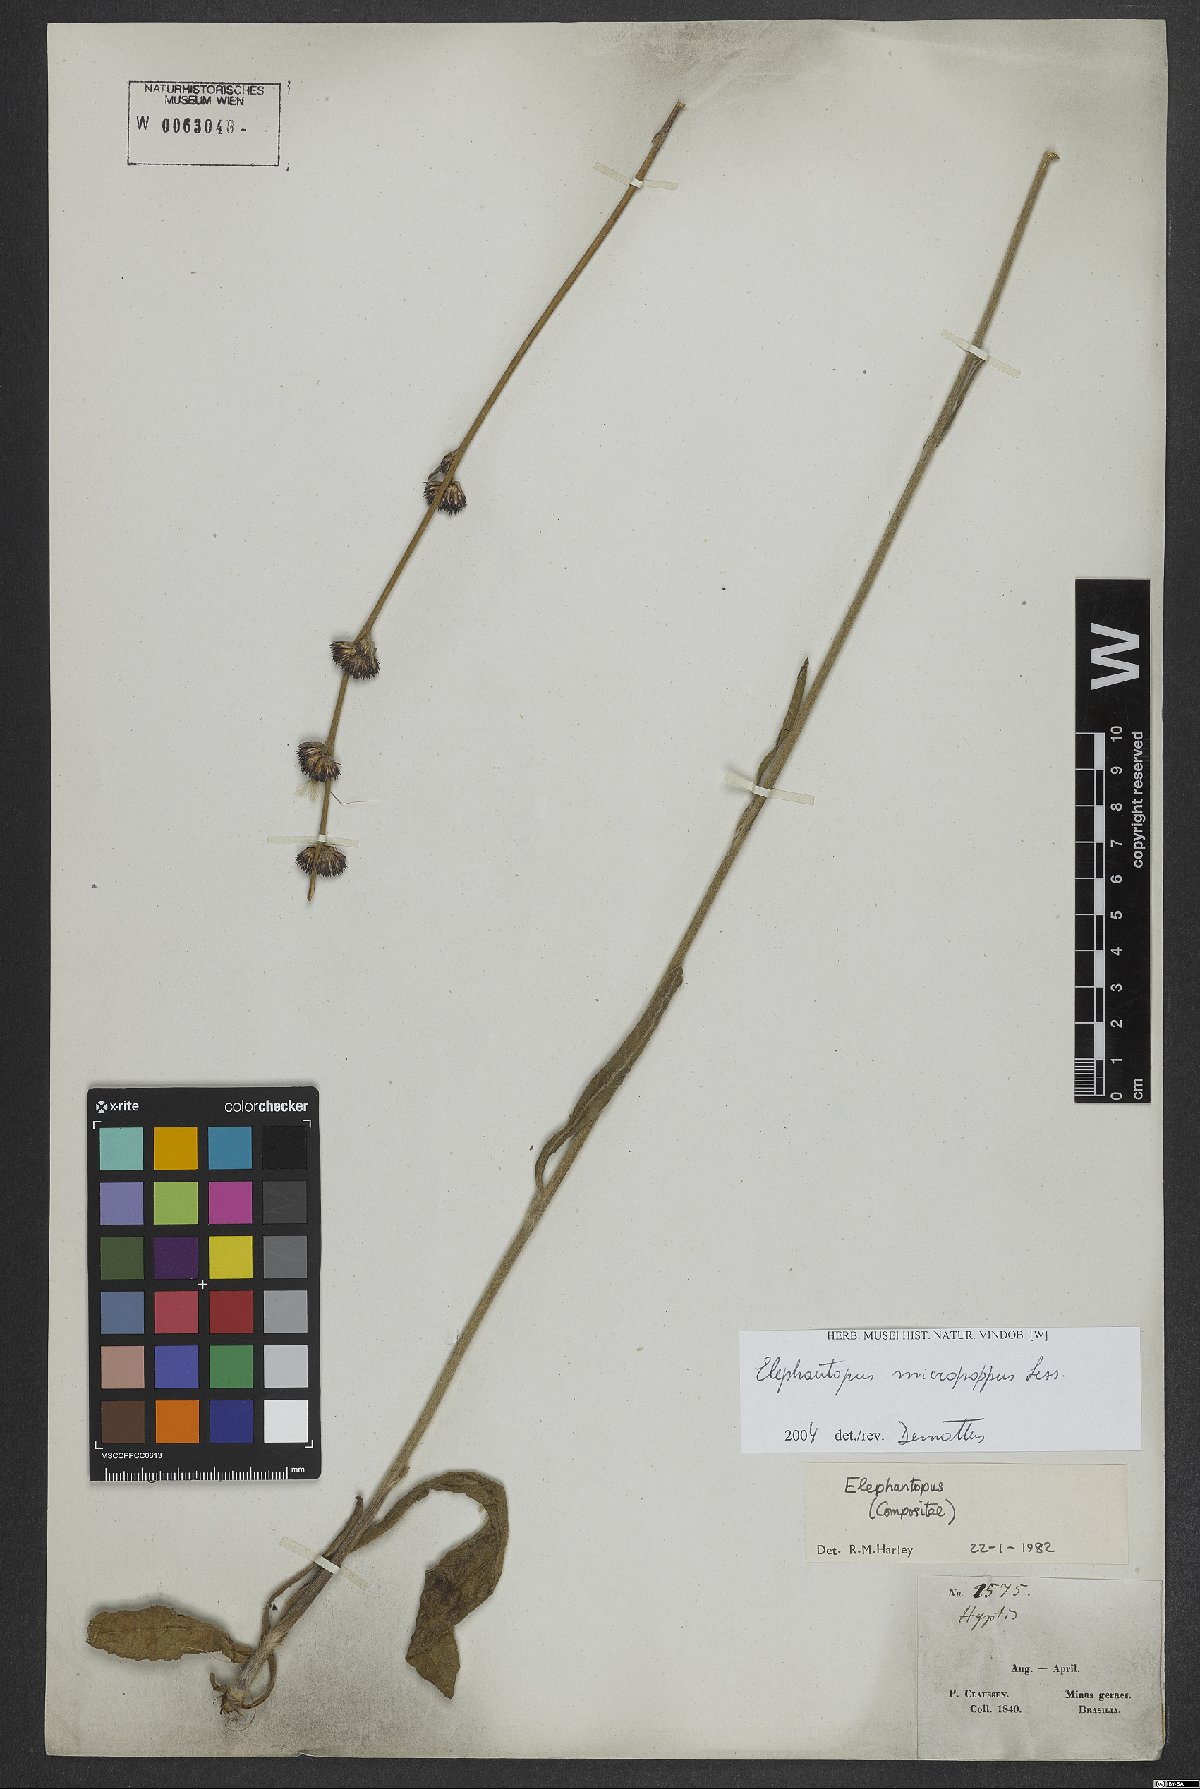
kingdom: Plantae
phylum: Tracheophyta
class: Magnoliopsida
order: Asterales
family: Asteraceae
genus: Elephantopus
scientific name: Elephantopus micropappus
